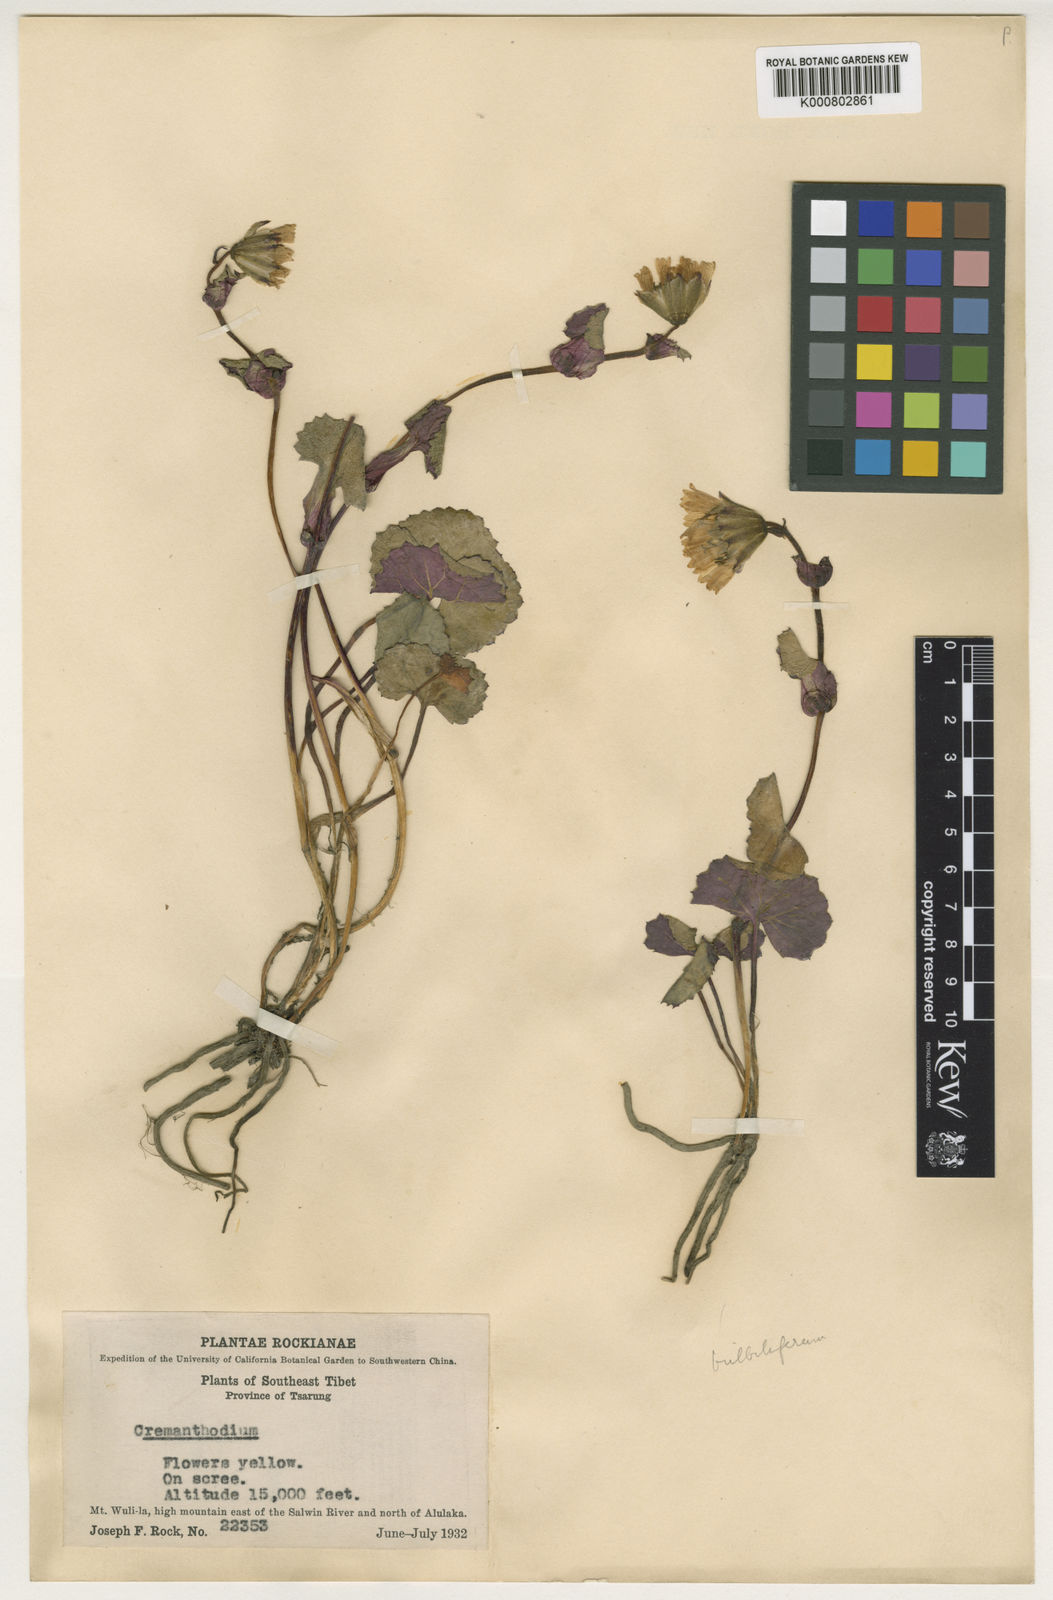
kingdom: Plantae
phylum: Tracheophyta
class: Magnoliopsida
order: Asterales
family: Asteraceae
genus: Cremanthodium
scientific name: Cremanthodium bulbilliferum
